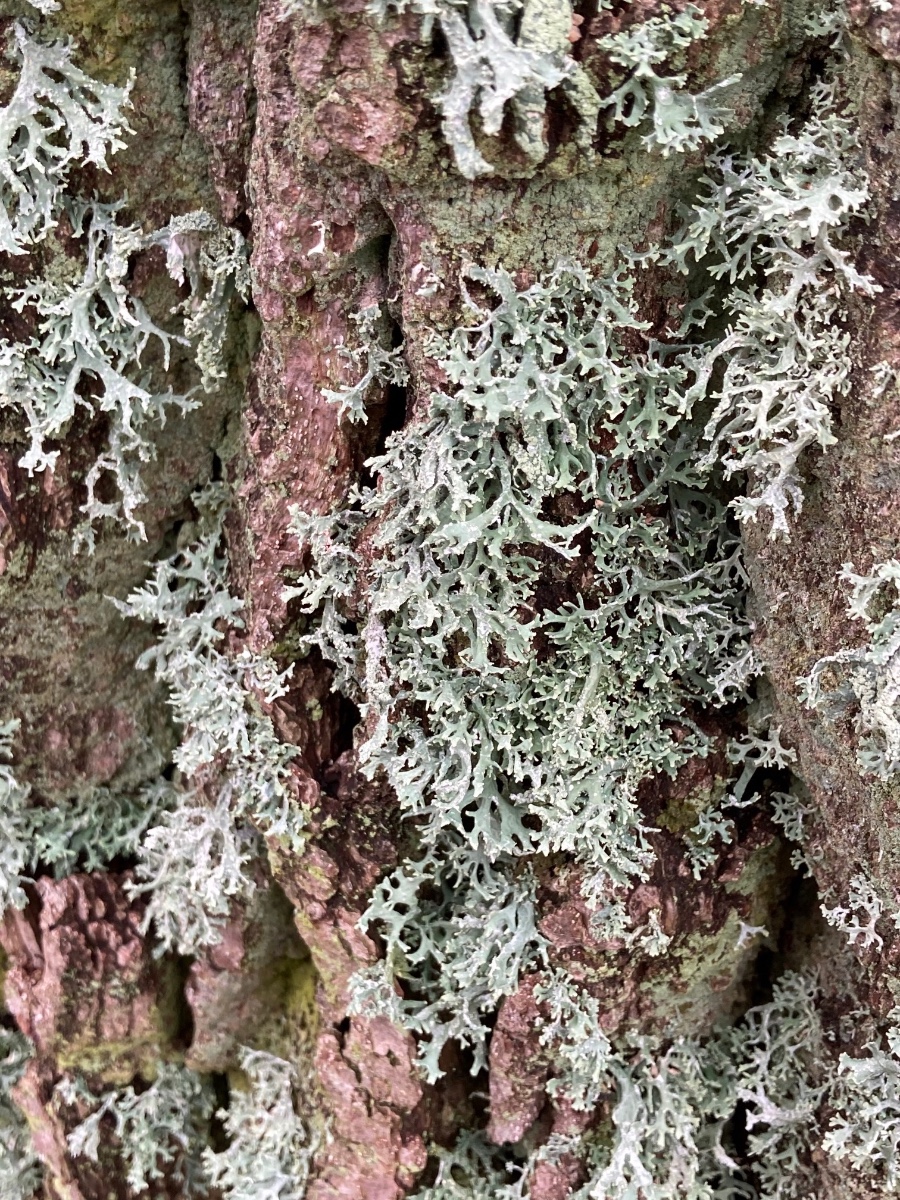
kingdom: Fungi
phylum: Ascomycota
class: Lecanoromycetes
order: Lecanorales
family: Parmeliaceae
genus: Evernia
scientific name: Evernia prunastri
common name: almindelig slåenlav
